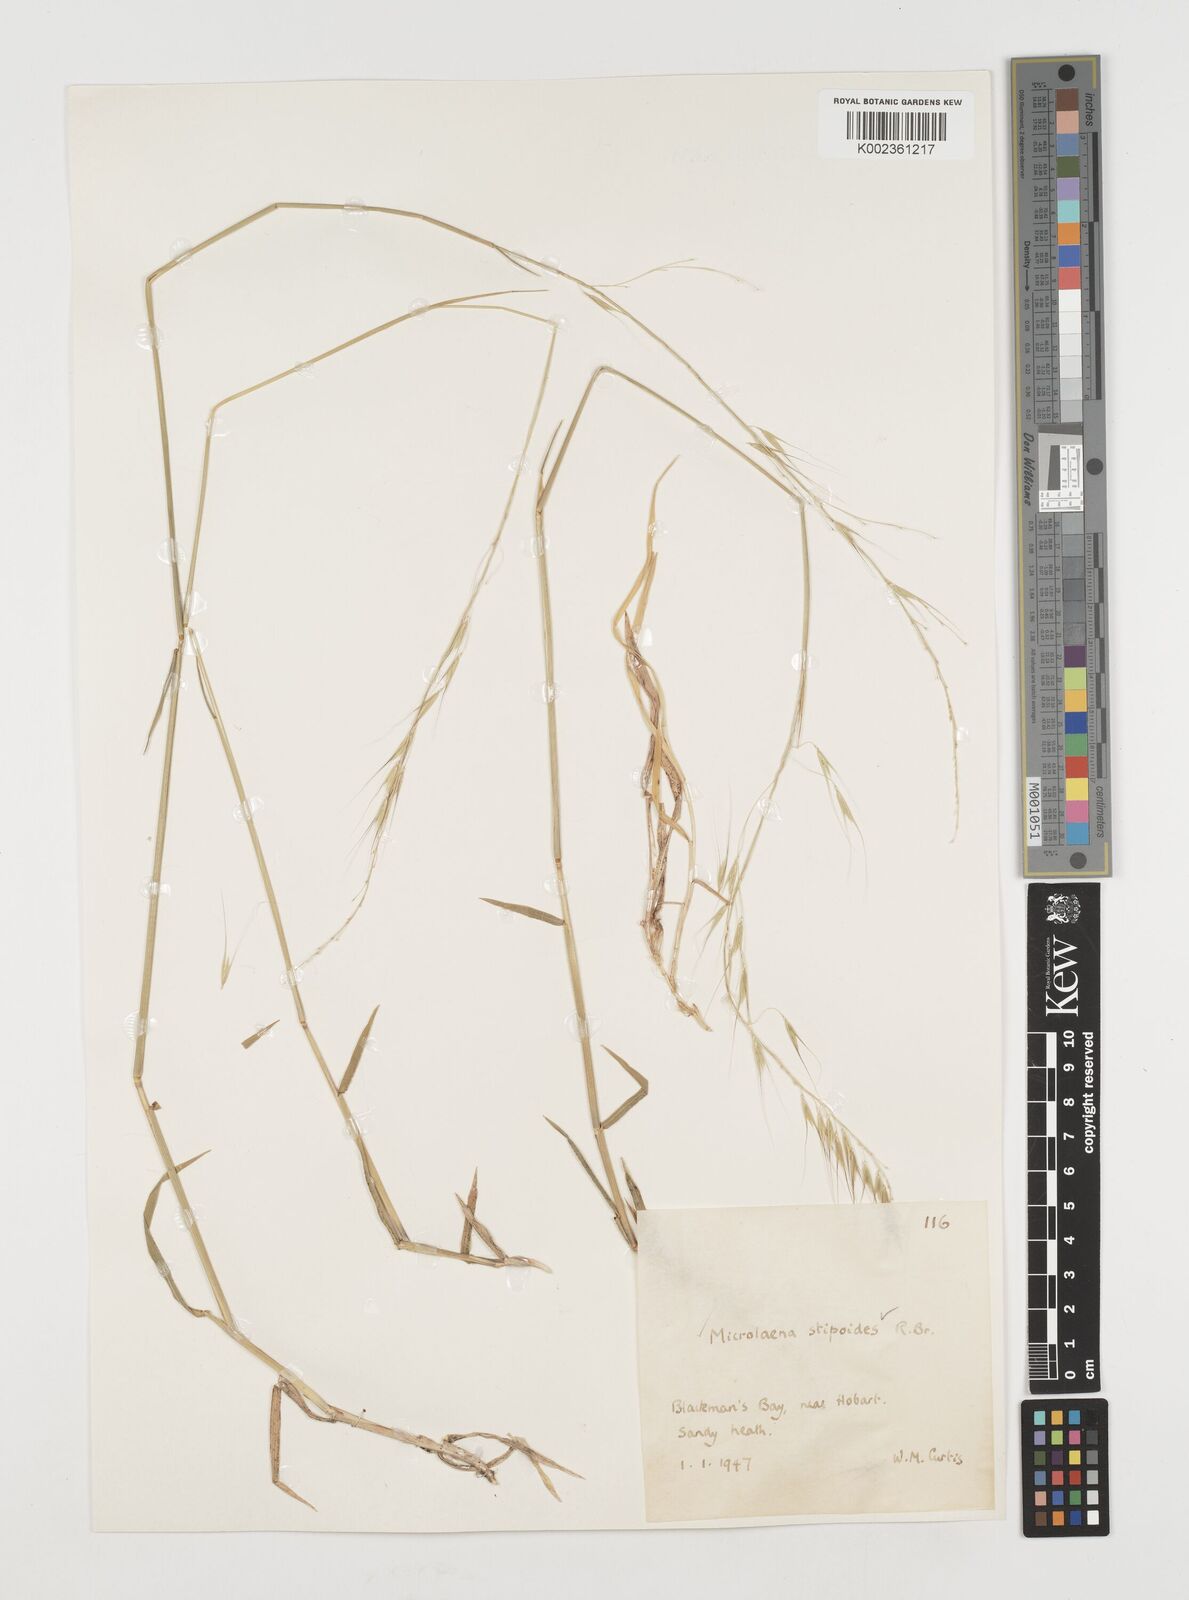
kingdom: Plantae
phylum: Tracheophyta
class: Liliopsida
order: Poales
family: Poaceae
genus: Microlaena
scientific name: Microlaena stipoides
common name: Meadow ricegrass
